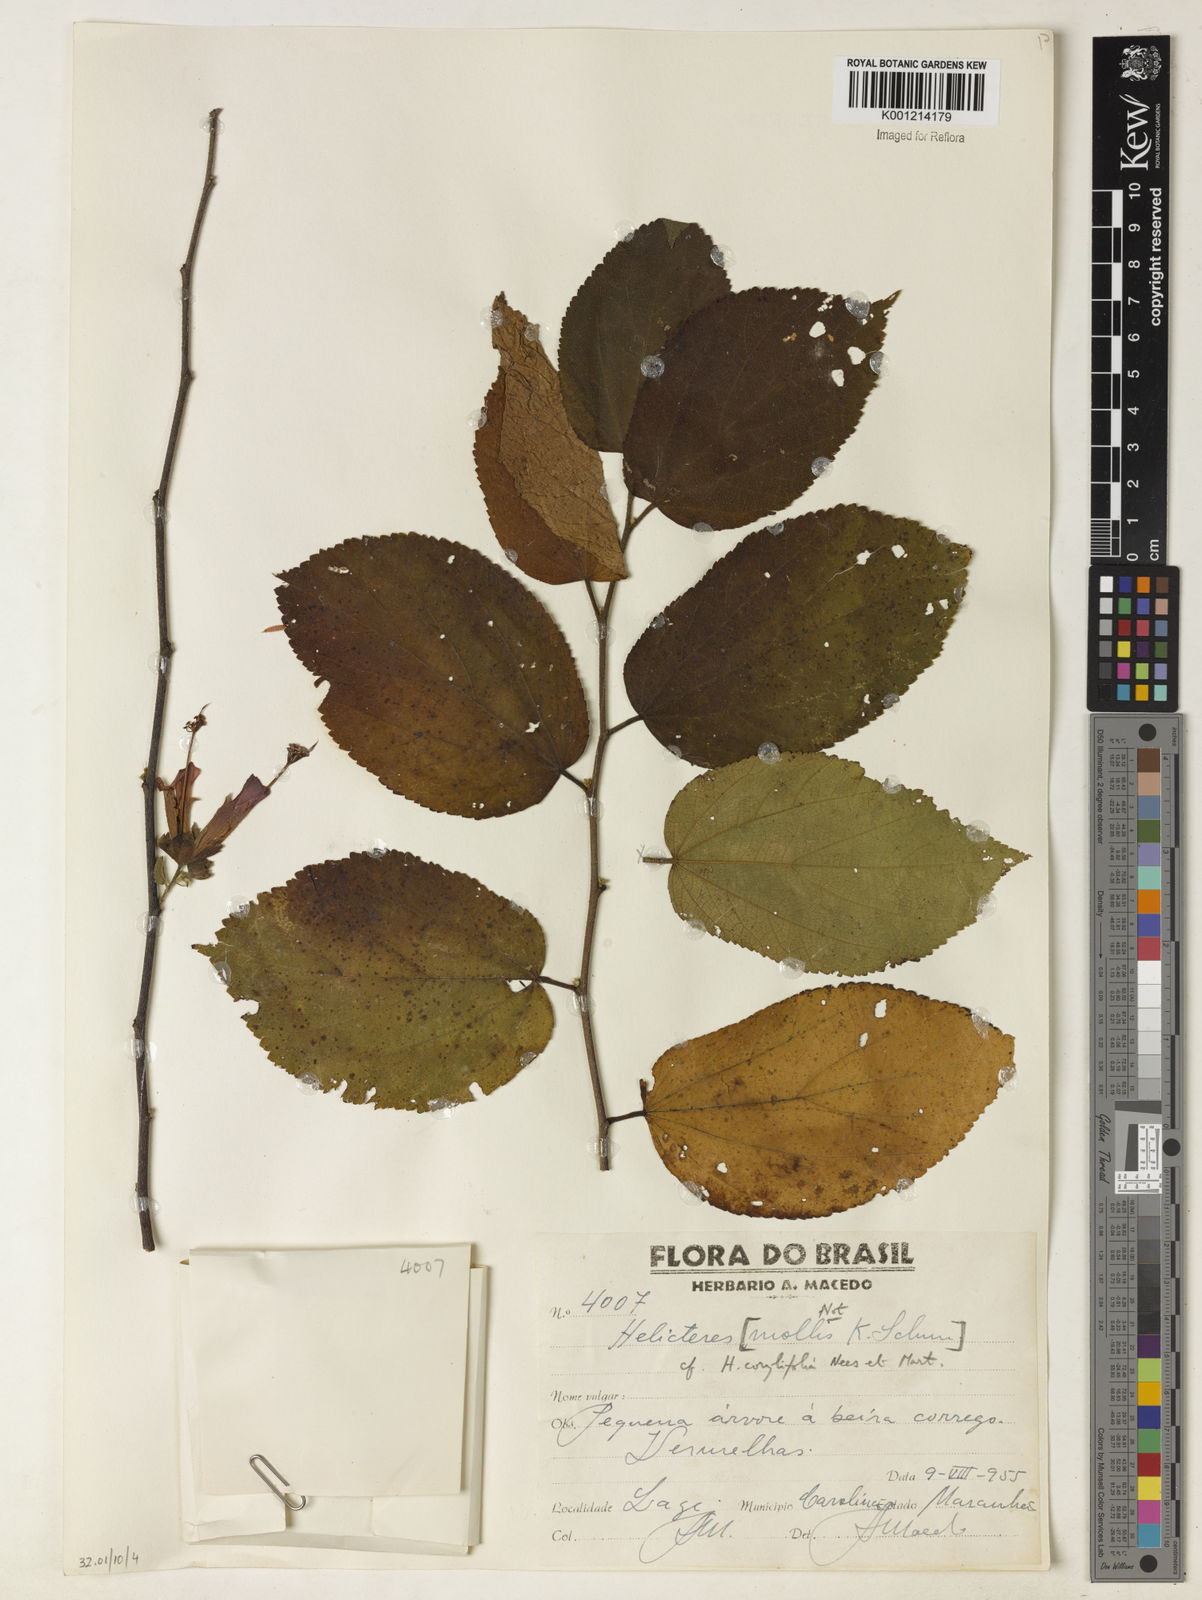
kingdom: Plantae
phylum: Tracheophyta
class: Magnoliopsida
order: Malvales
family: Malvaceae
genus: Helicteres
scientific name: Helicteres corylifolia
